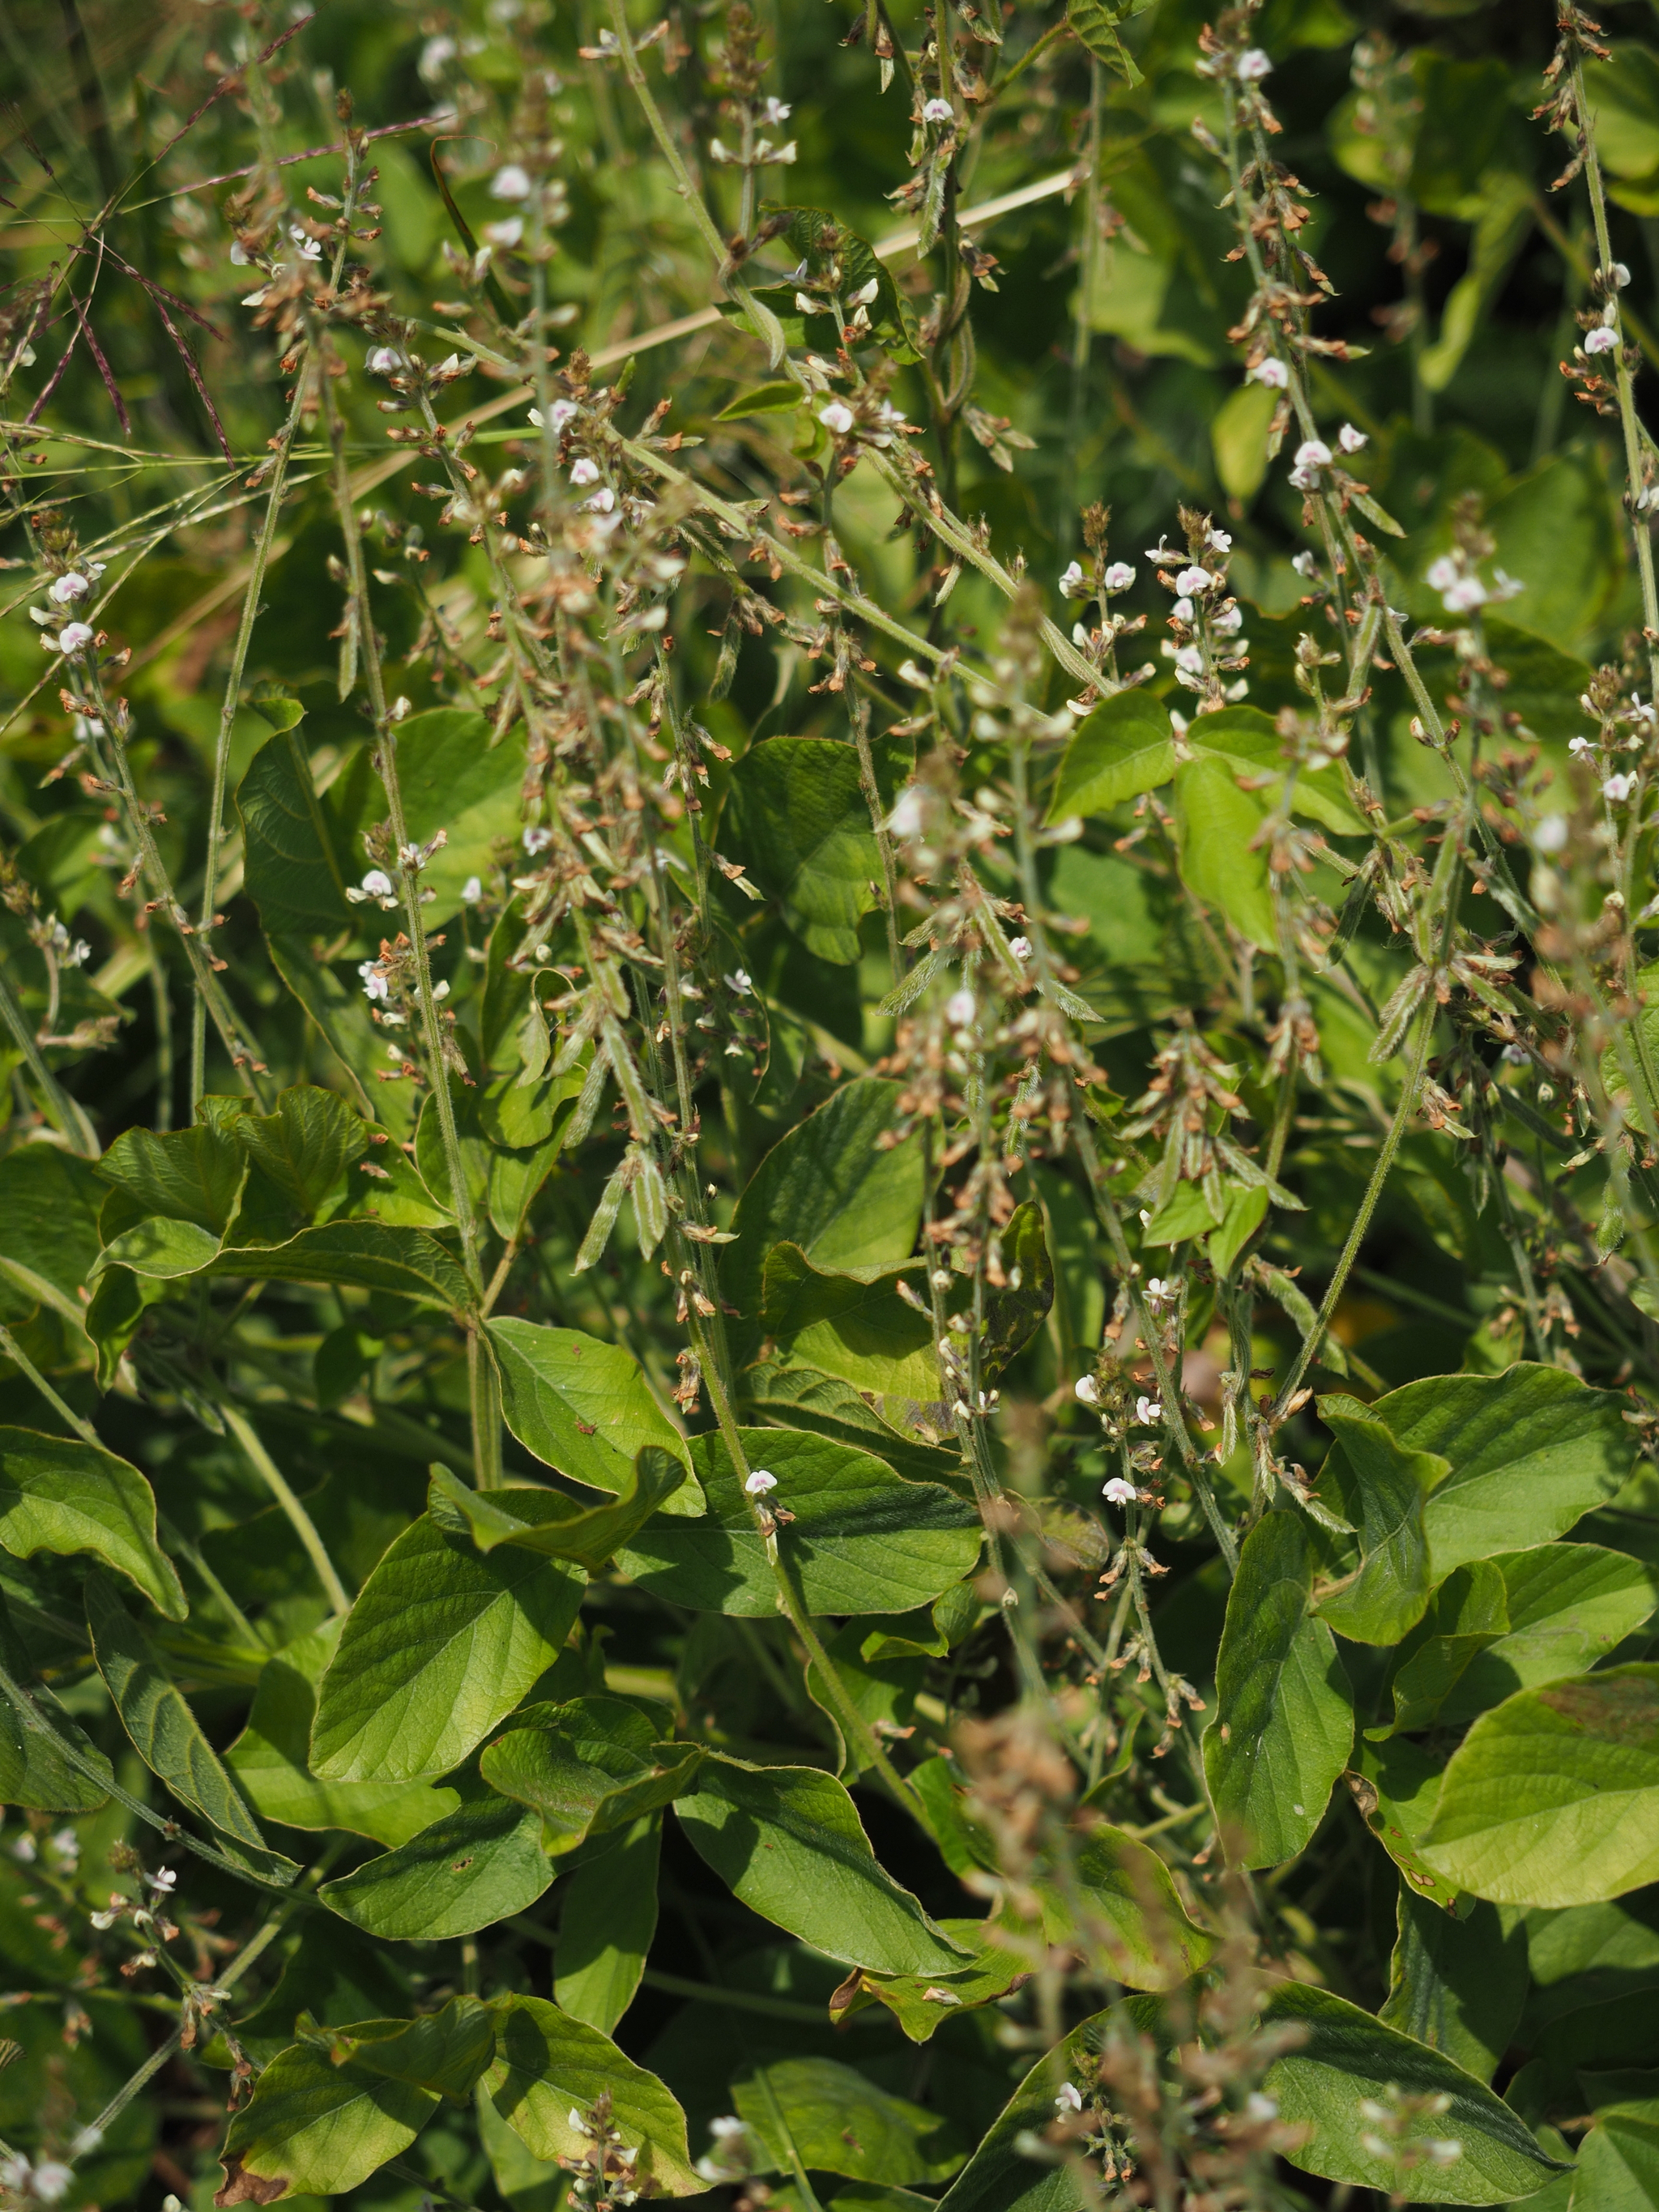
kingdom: Plantae
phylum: Tracheophyta
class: Magnoliopsida
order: Fabales
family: Fabaceae
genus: Neonotonia
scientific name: Neonotonia wightii
